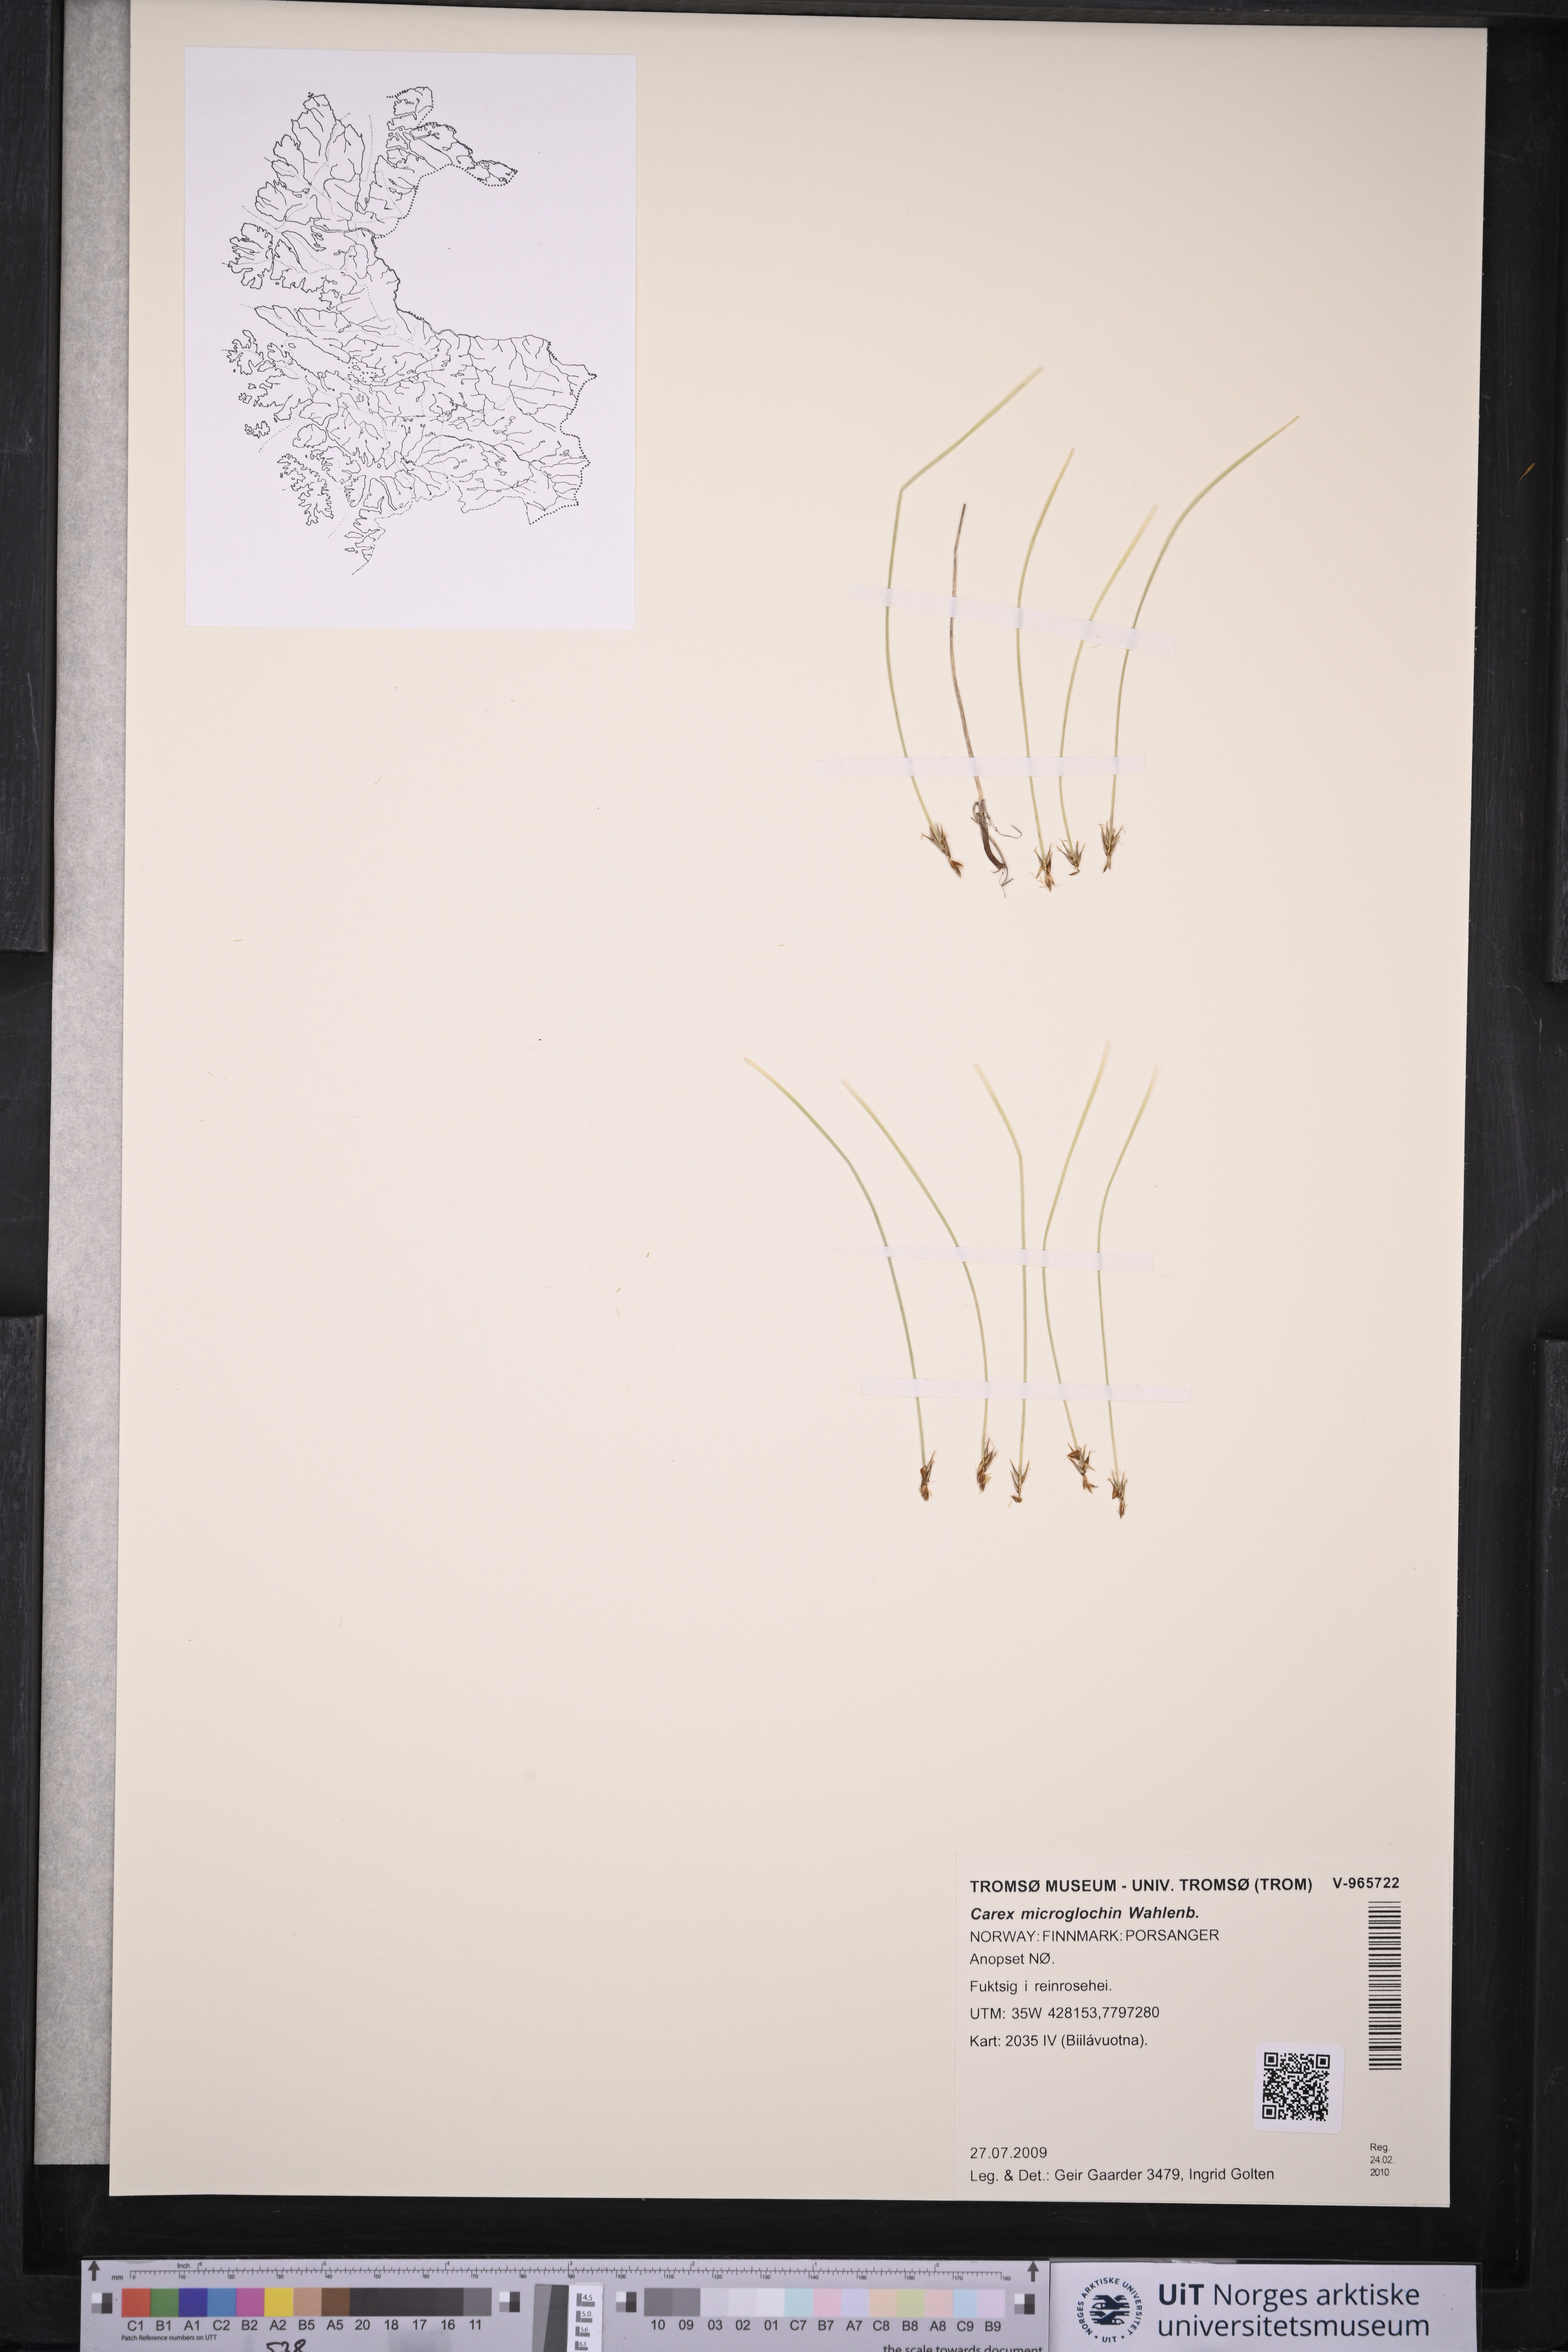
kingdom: Plantae
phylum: Tracheophyta
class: Liliopsida
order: Poales
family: Cyperaceae
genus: Carex
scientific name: Carex microglochin
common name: Bristle sedge
